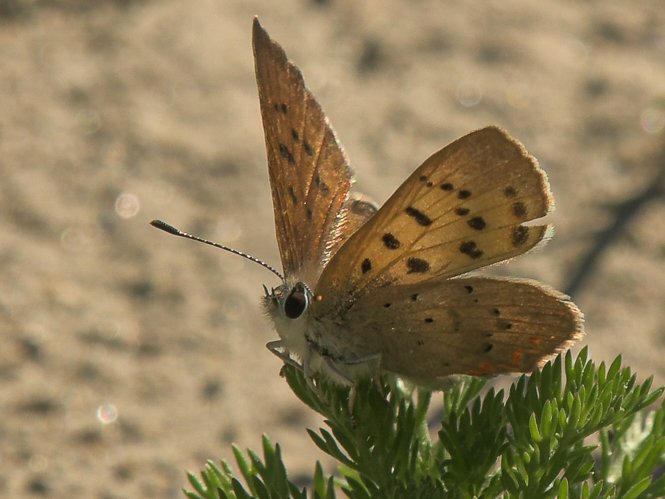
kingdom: Animalia
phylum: Arthropoda
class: Insecta
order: Lepidoptera
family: Lycaenidae
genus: Lycaena
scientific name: Lycaena
